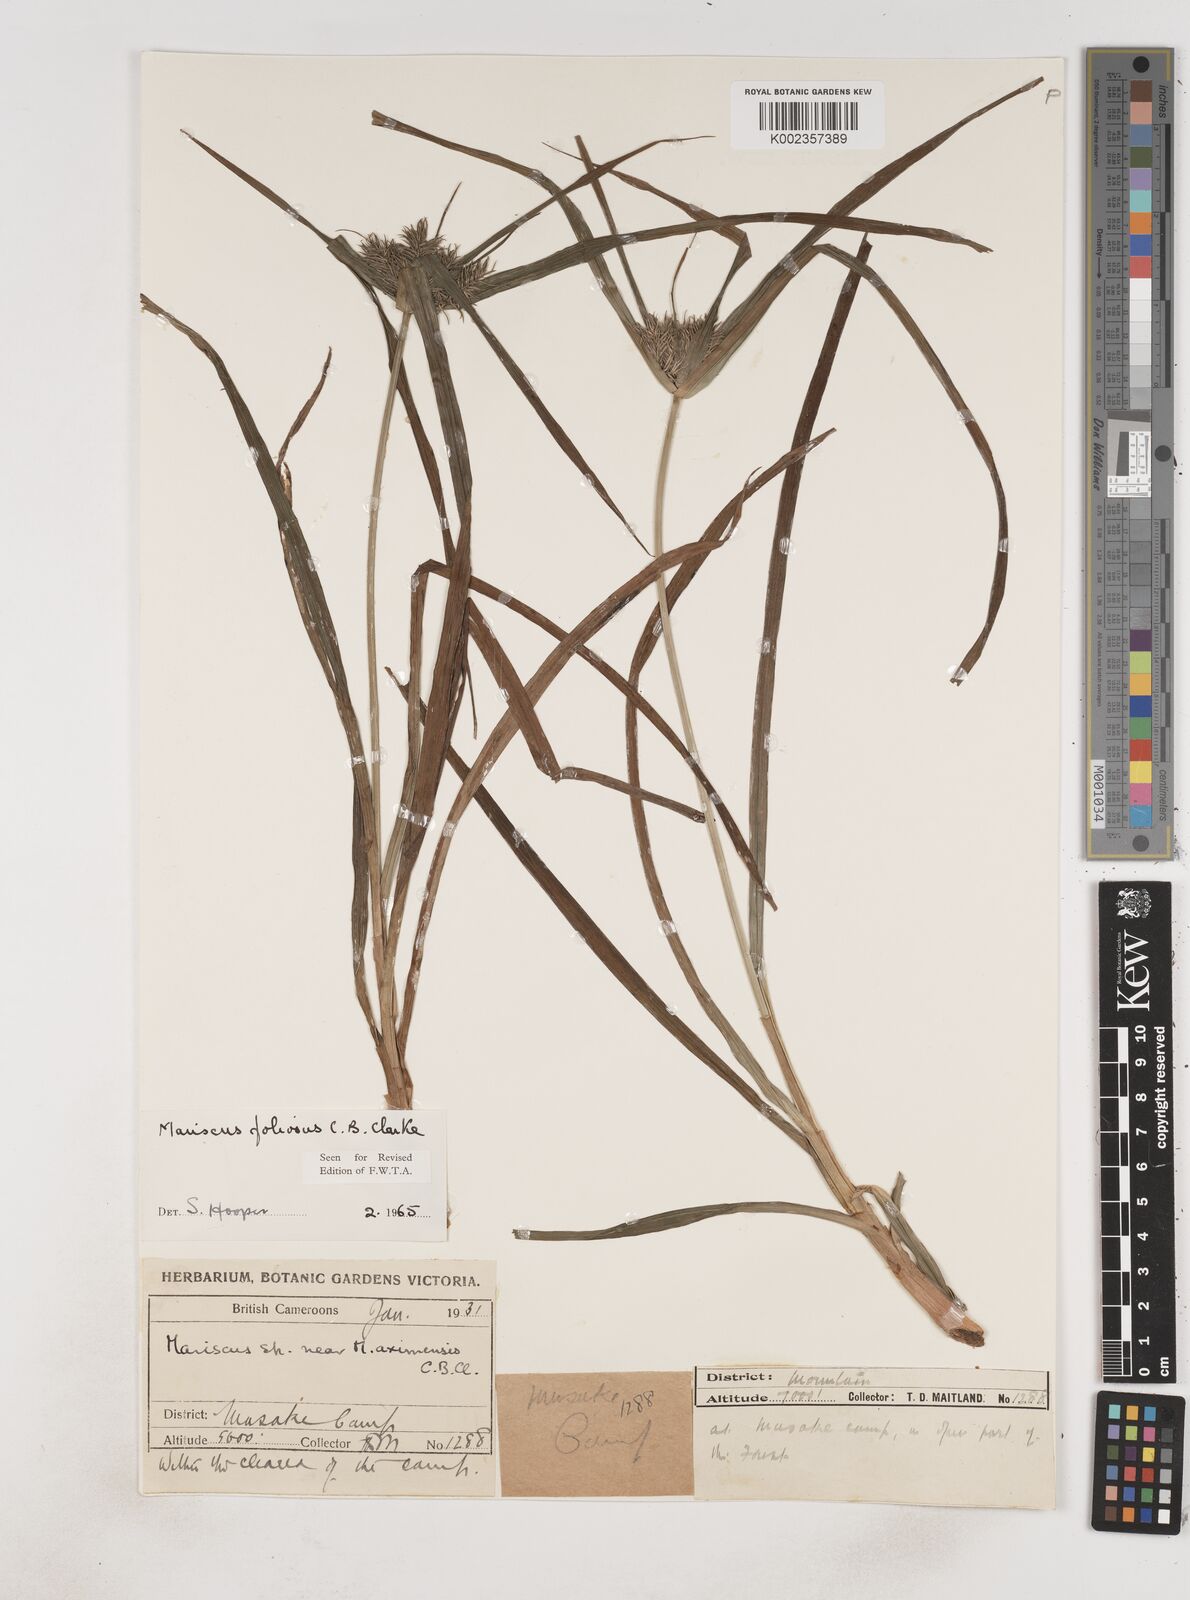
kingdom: Plantae
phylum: Tracheophyta
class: Liliopsida
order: Poales
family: Cyperaceae
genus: Cyperus
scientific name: Cyperus
